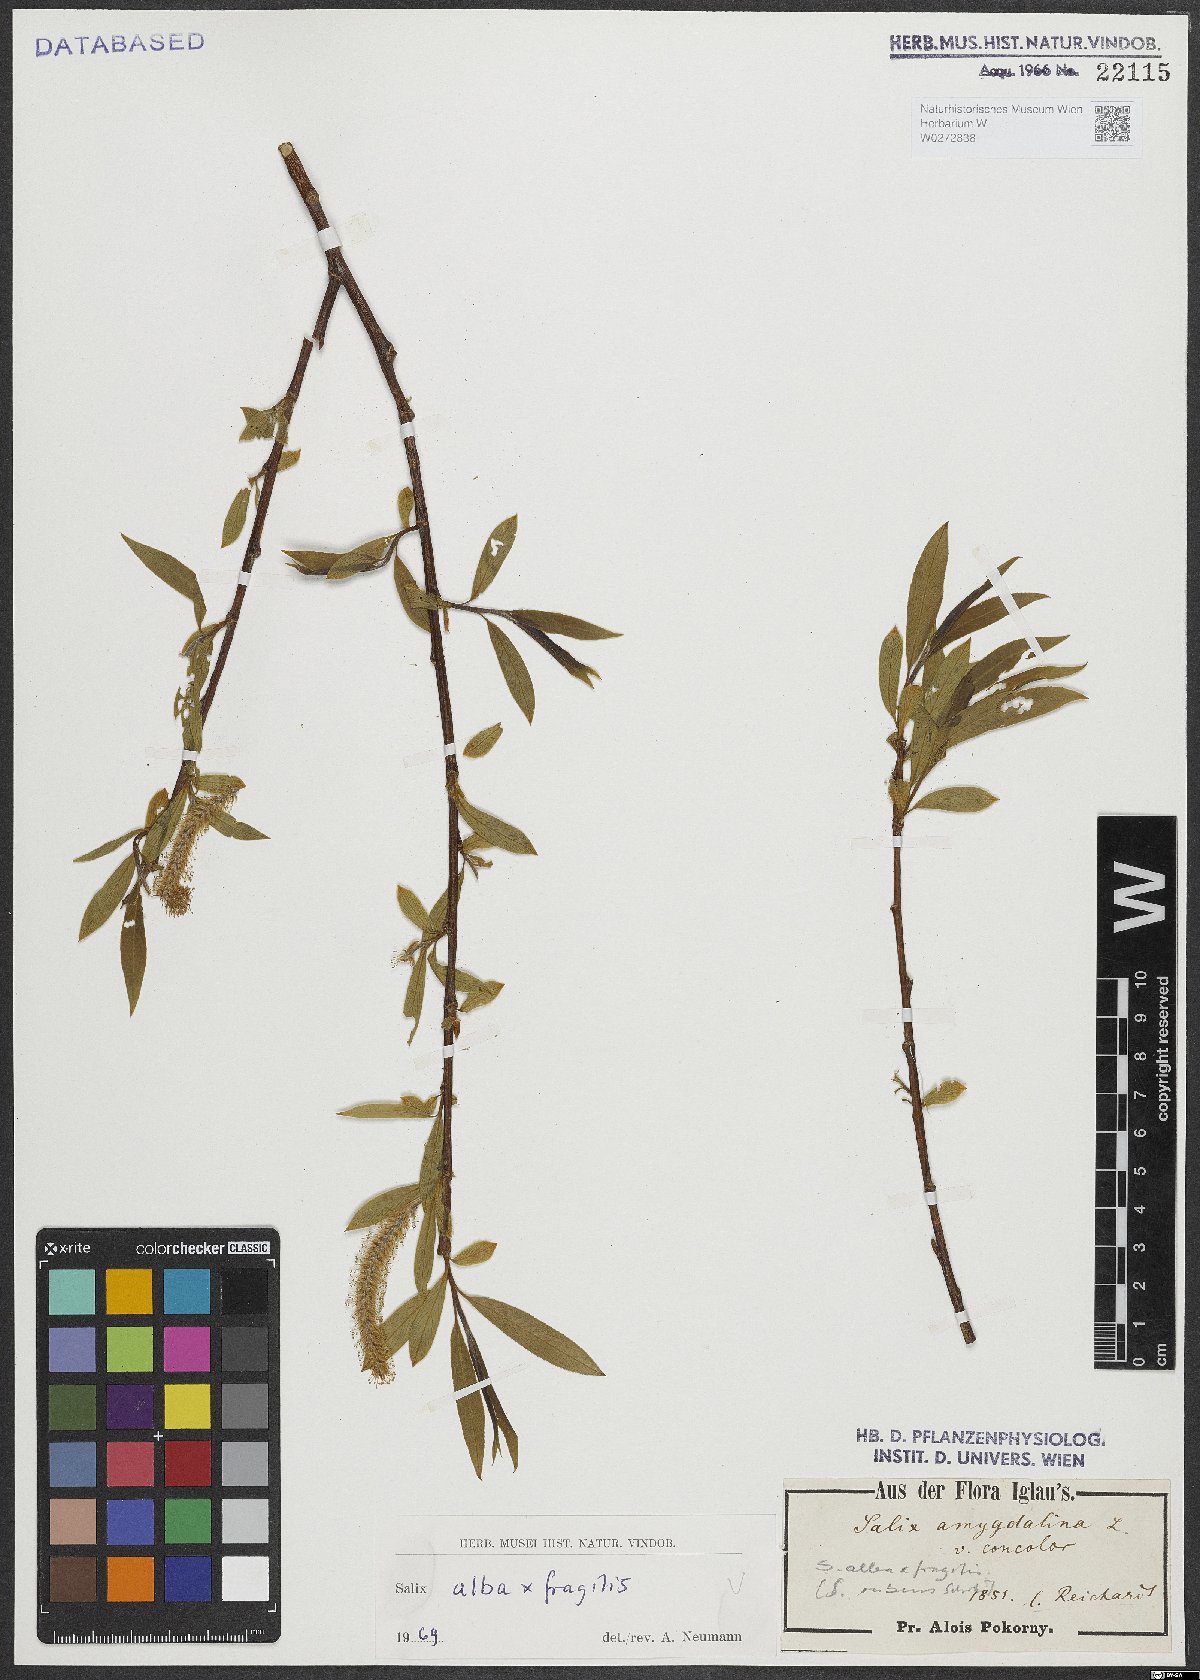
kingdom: Plantae
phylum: Tracheophyta
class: Magnoliopsida
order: Malpighiales
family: Salicaceae
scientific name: Salicaceae
